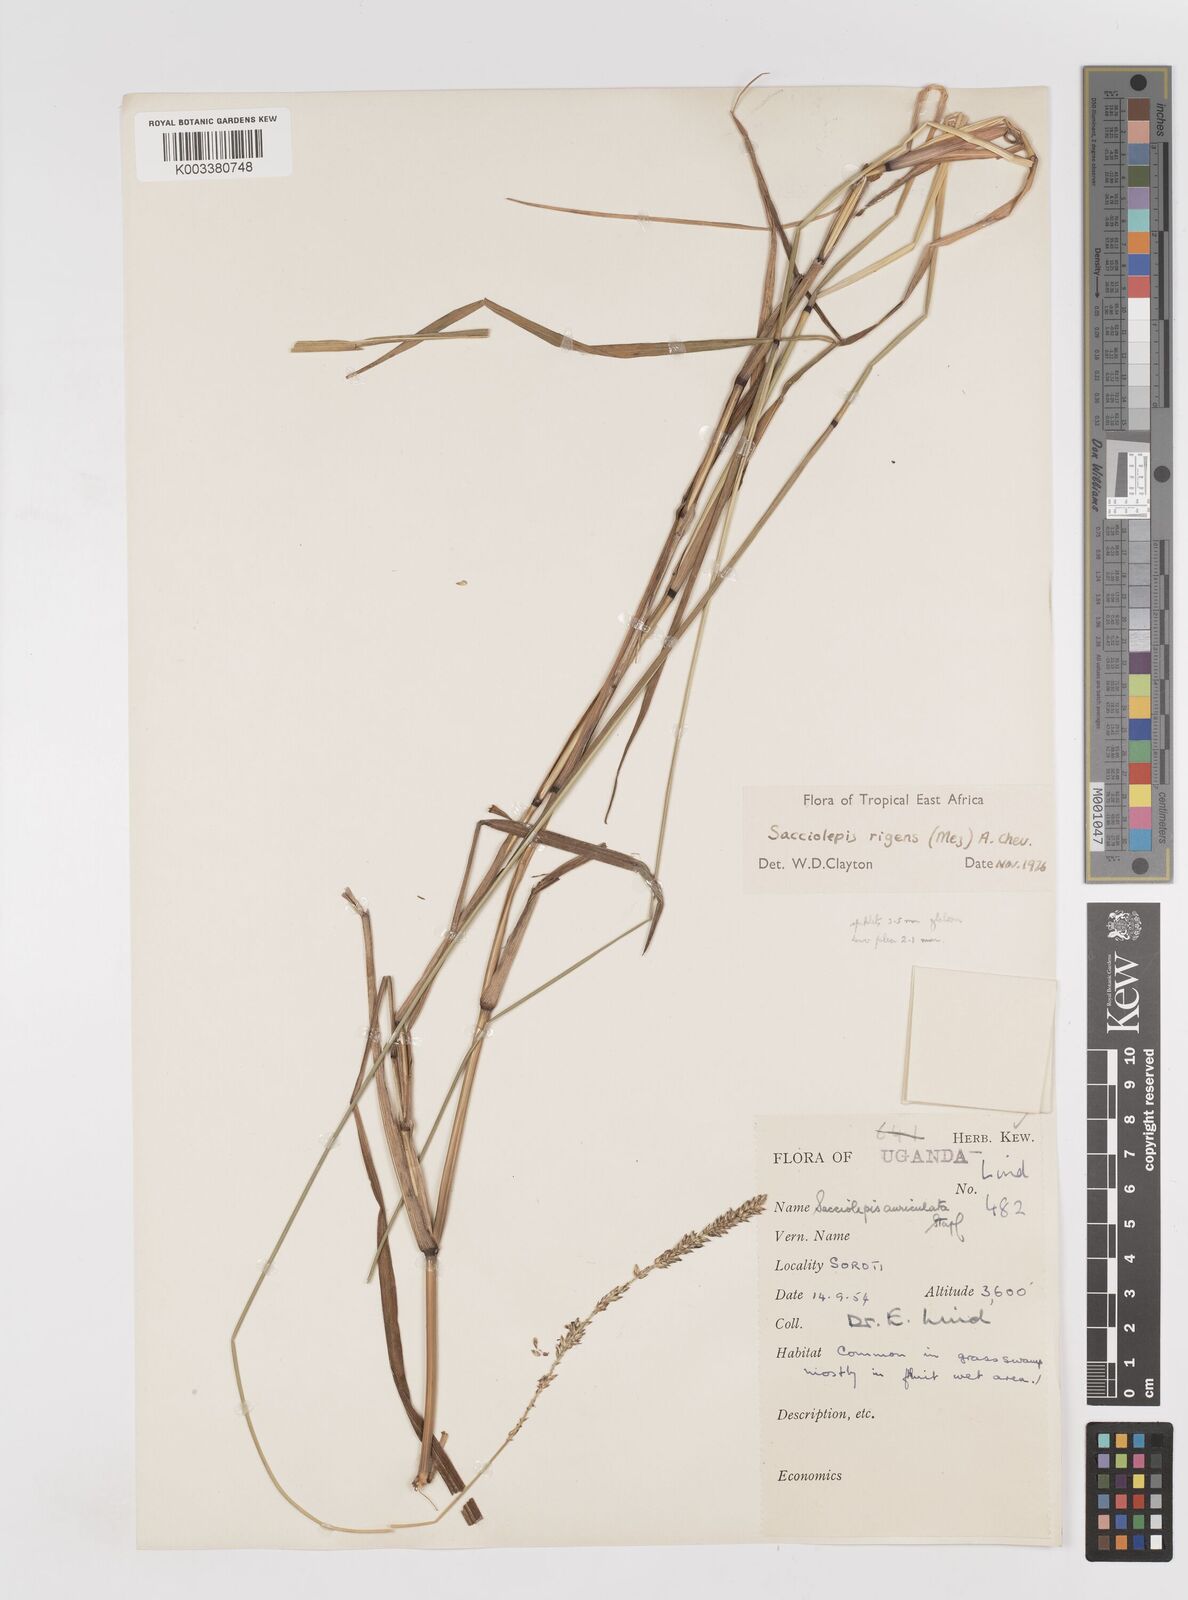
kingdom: Plantae
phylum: Tracheophyta
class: Liliopsida
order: Poales
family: Poaceae
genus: Sacciolepis
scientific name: Sacciolepis leptorrhachis
